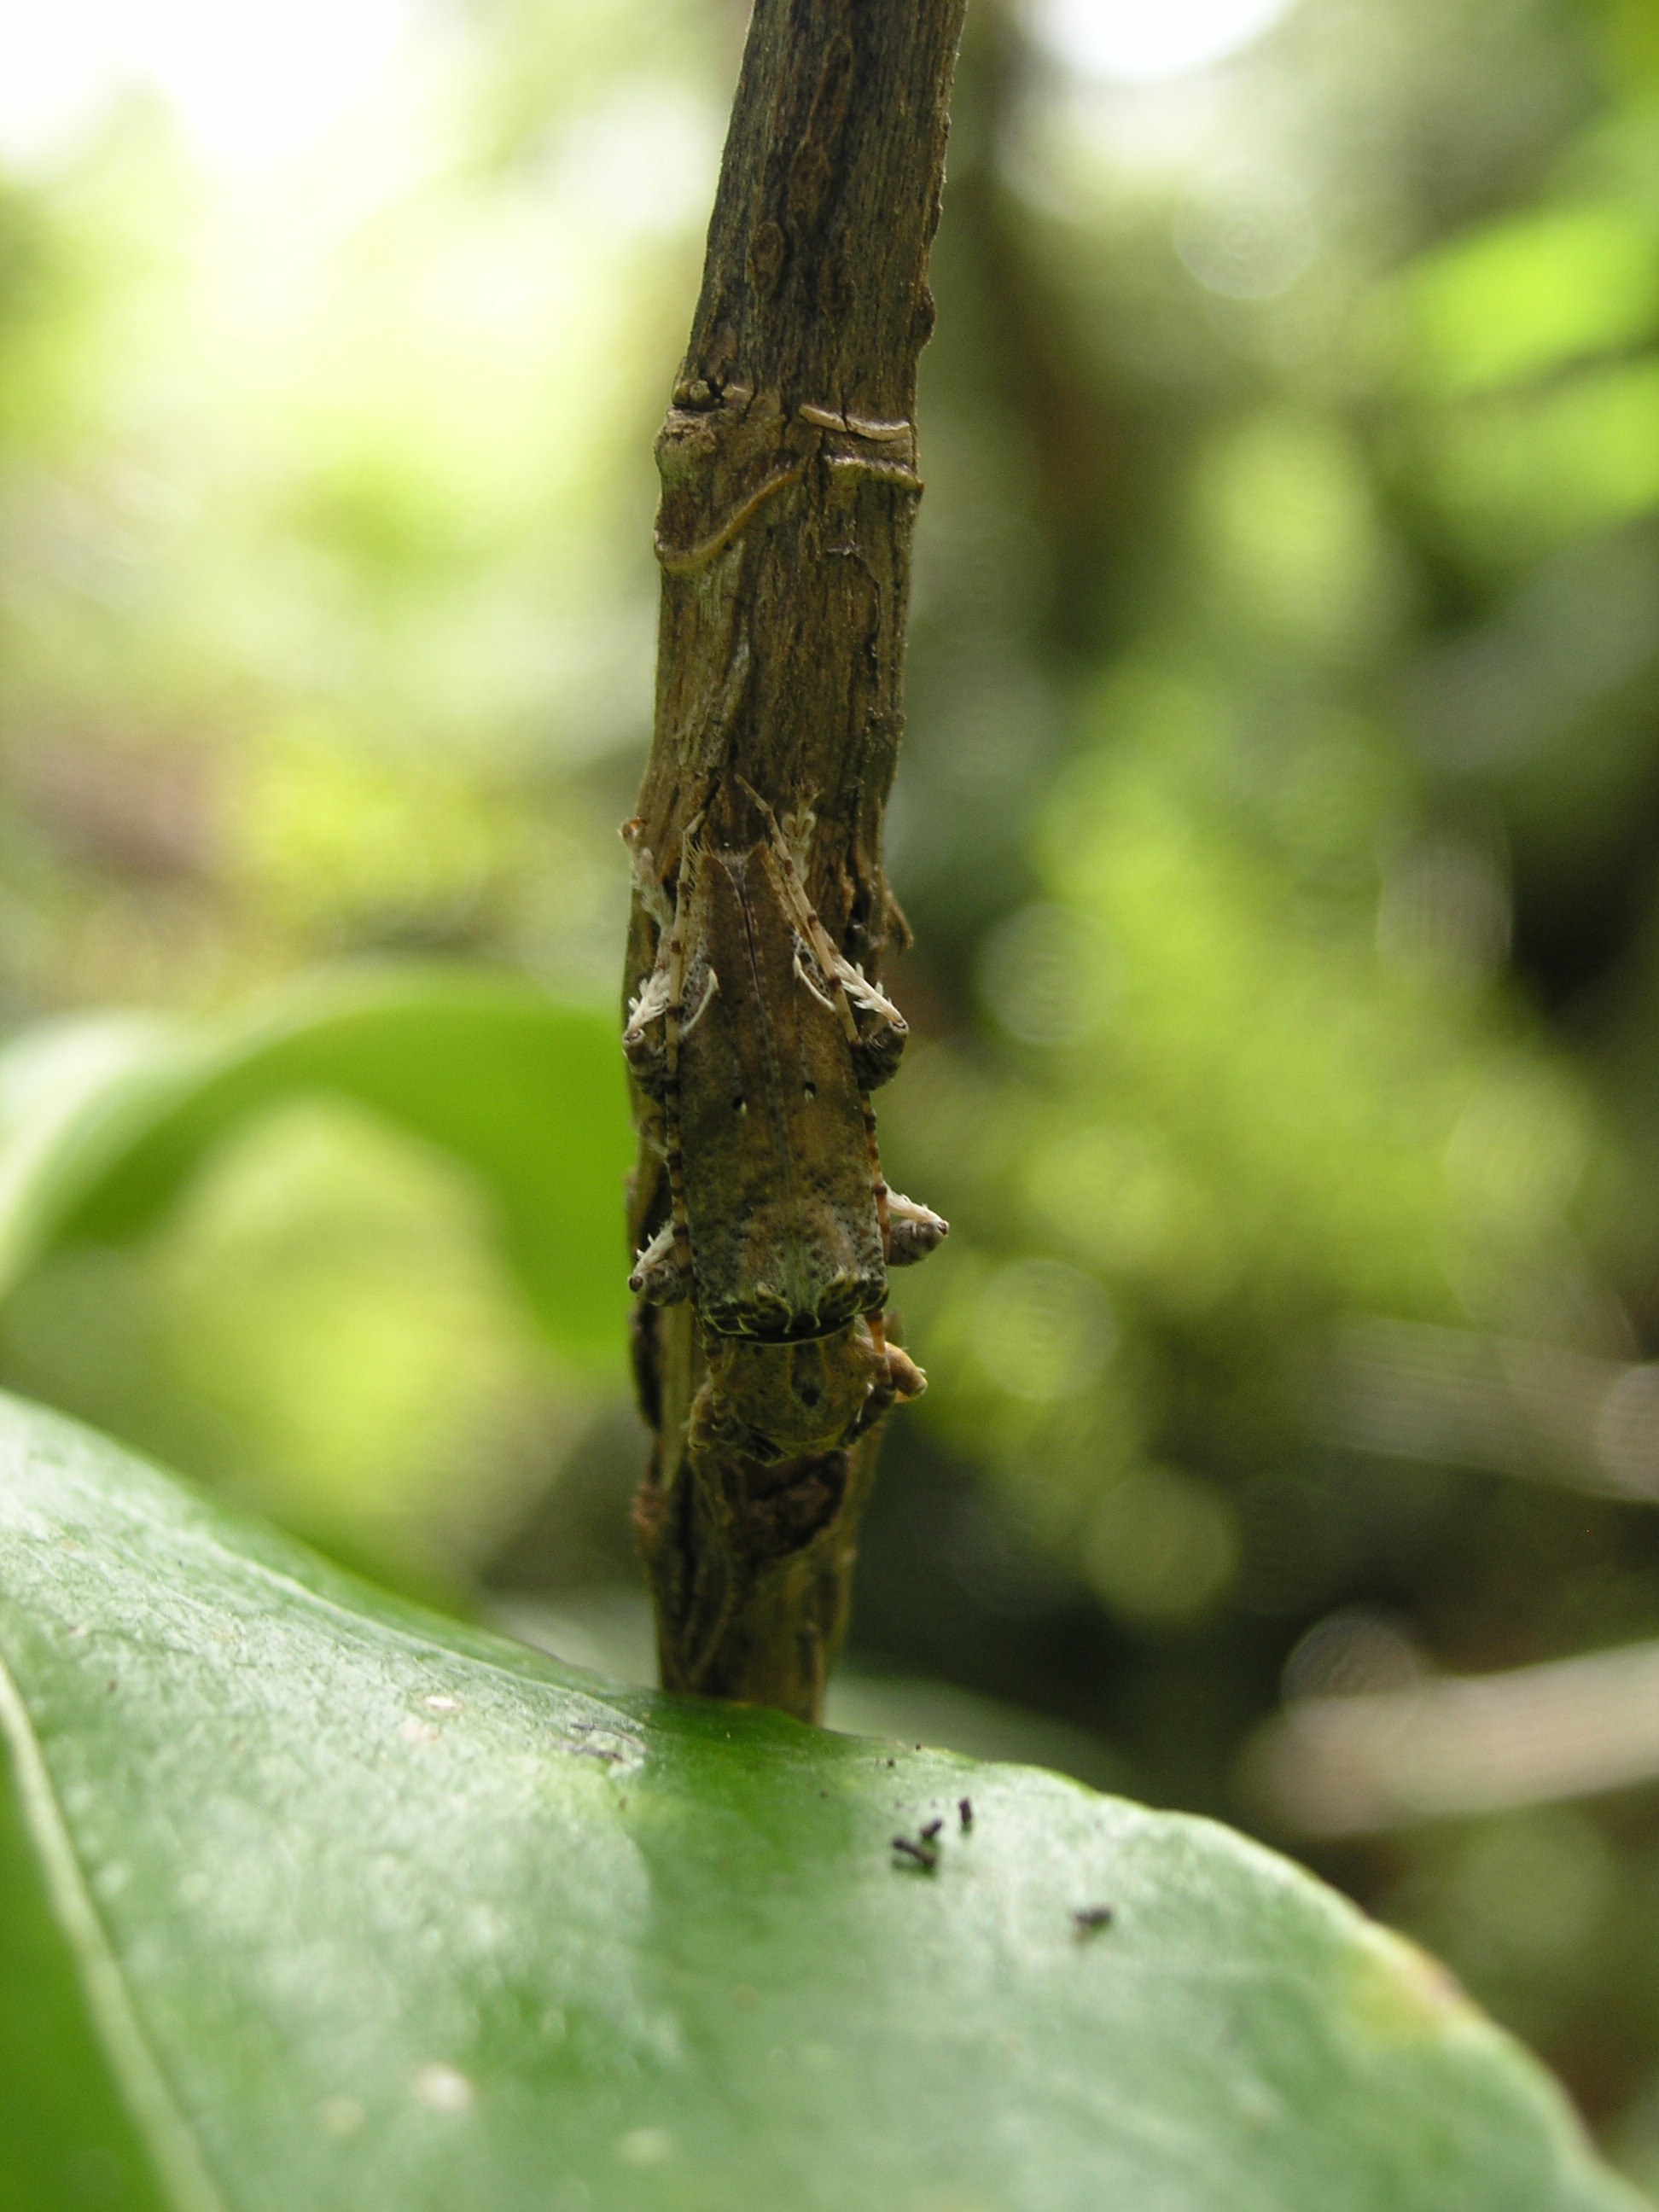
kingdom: Animalia
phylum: Arthropoda
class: Insecta
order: Coleoptera
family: Cerambycidae
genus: Tetrorea
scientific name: Tetrorea cilipes
